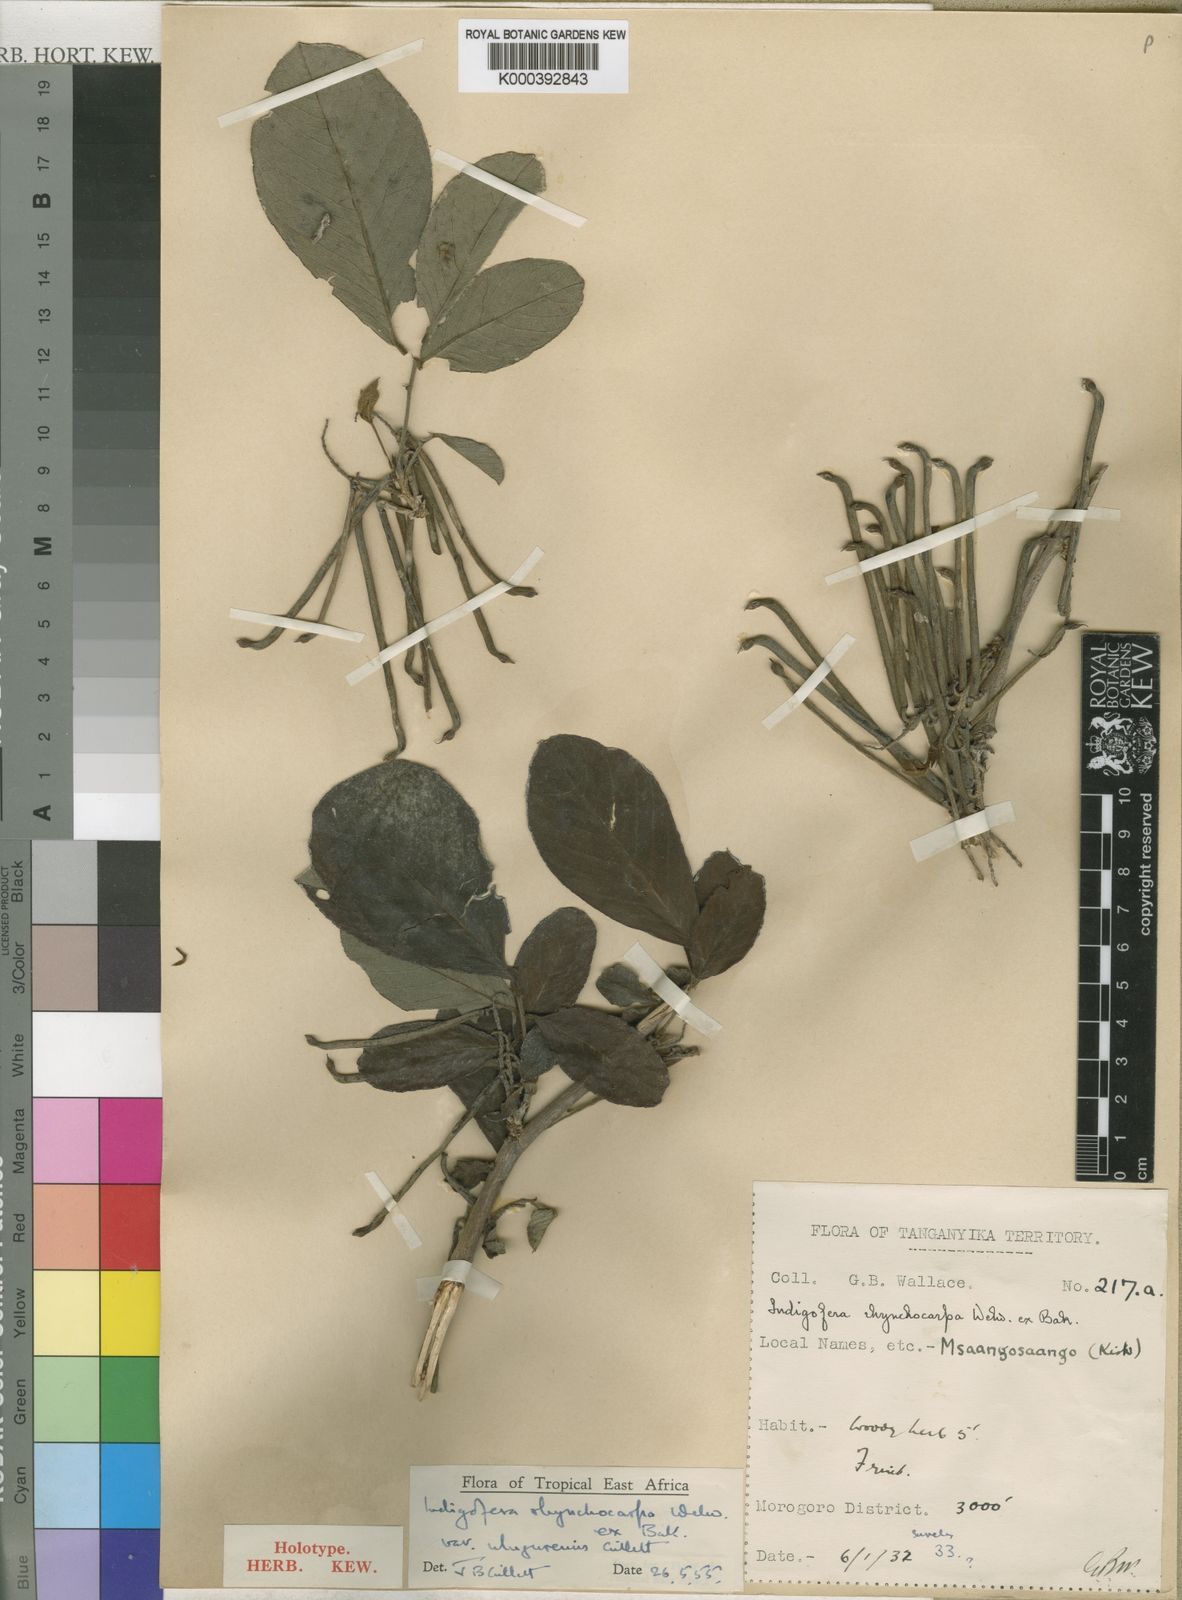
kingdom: Plantae
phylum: Tracheophyta
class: Magnoliopsida
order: Fabales
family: Fabaceae
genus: Indigofera
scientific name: Indigofera rhynchocarpa
